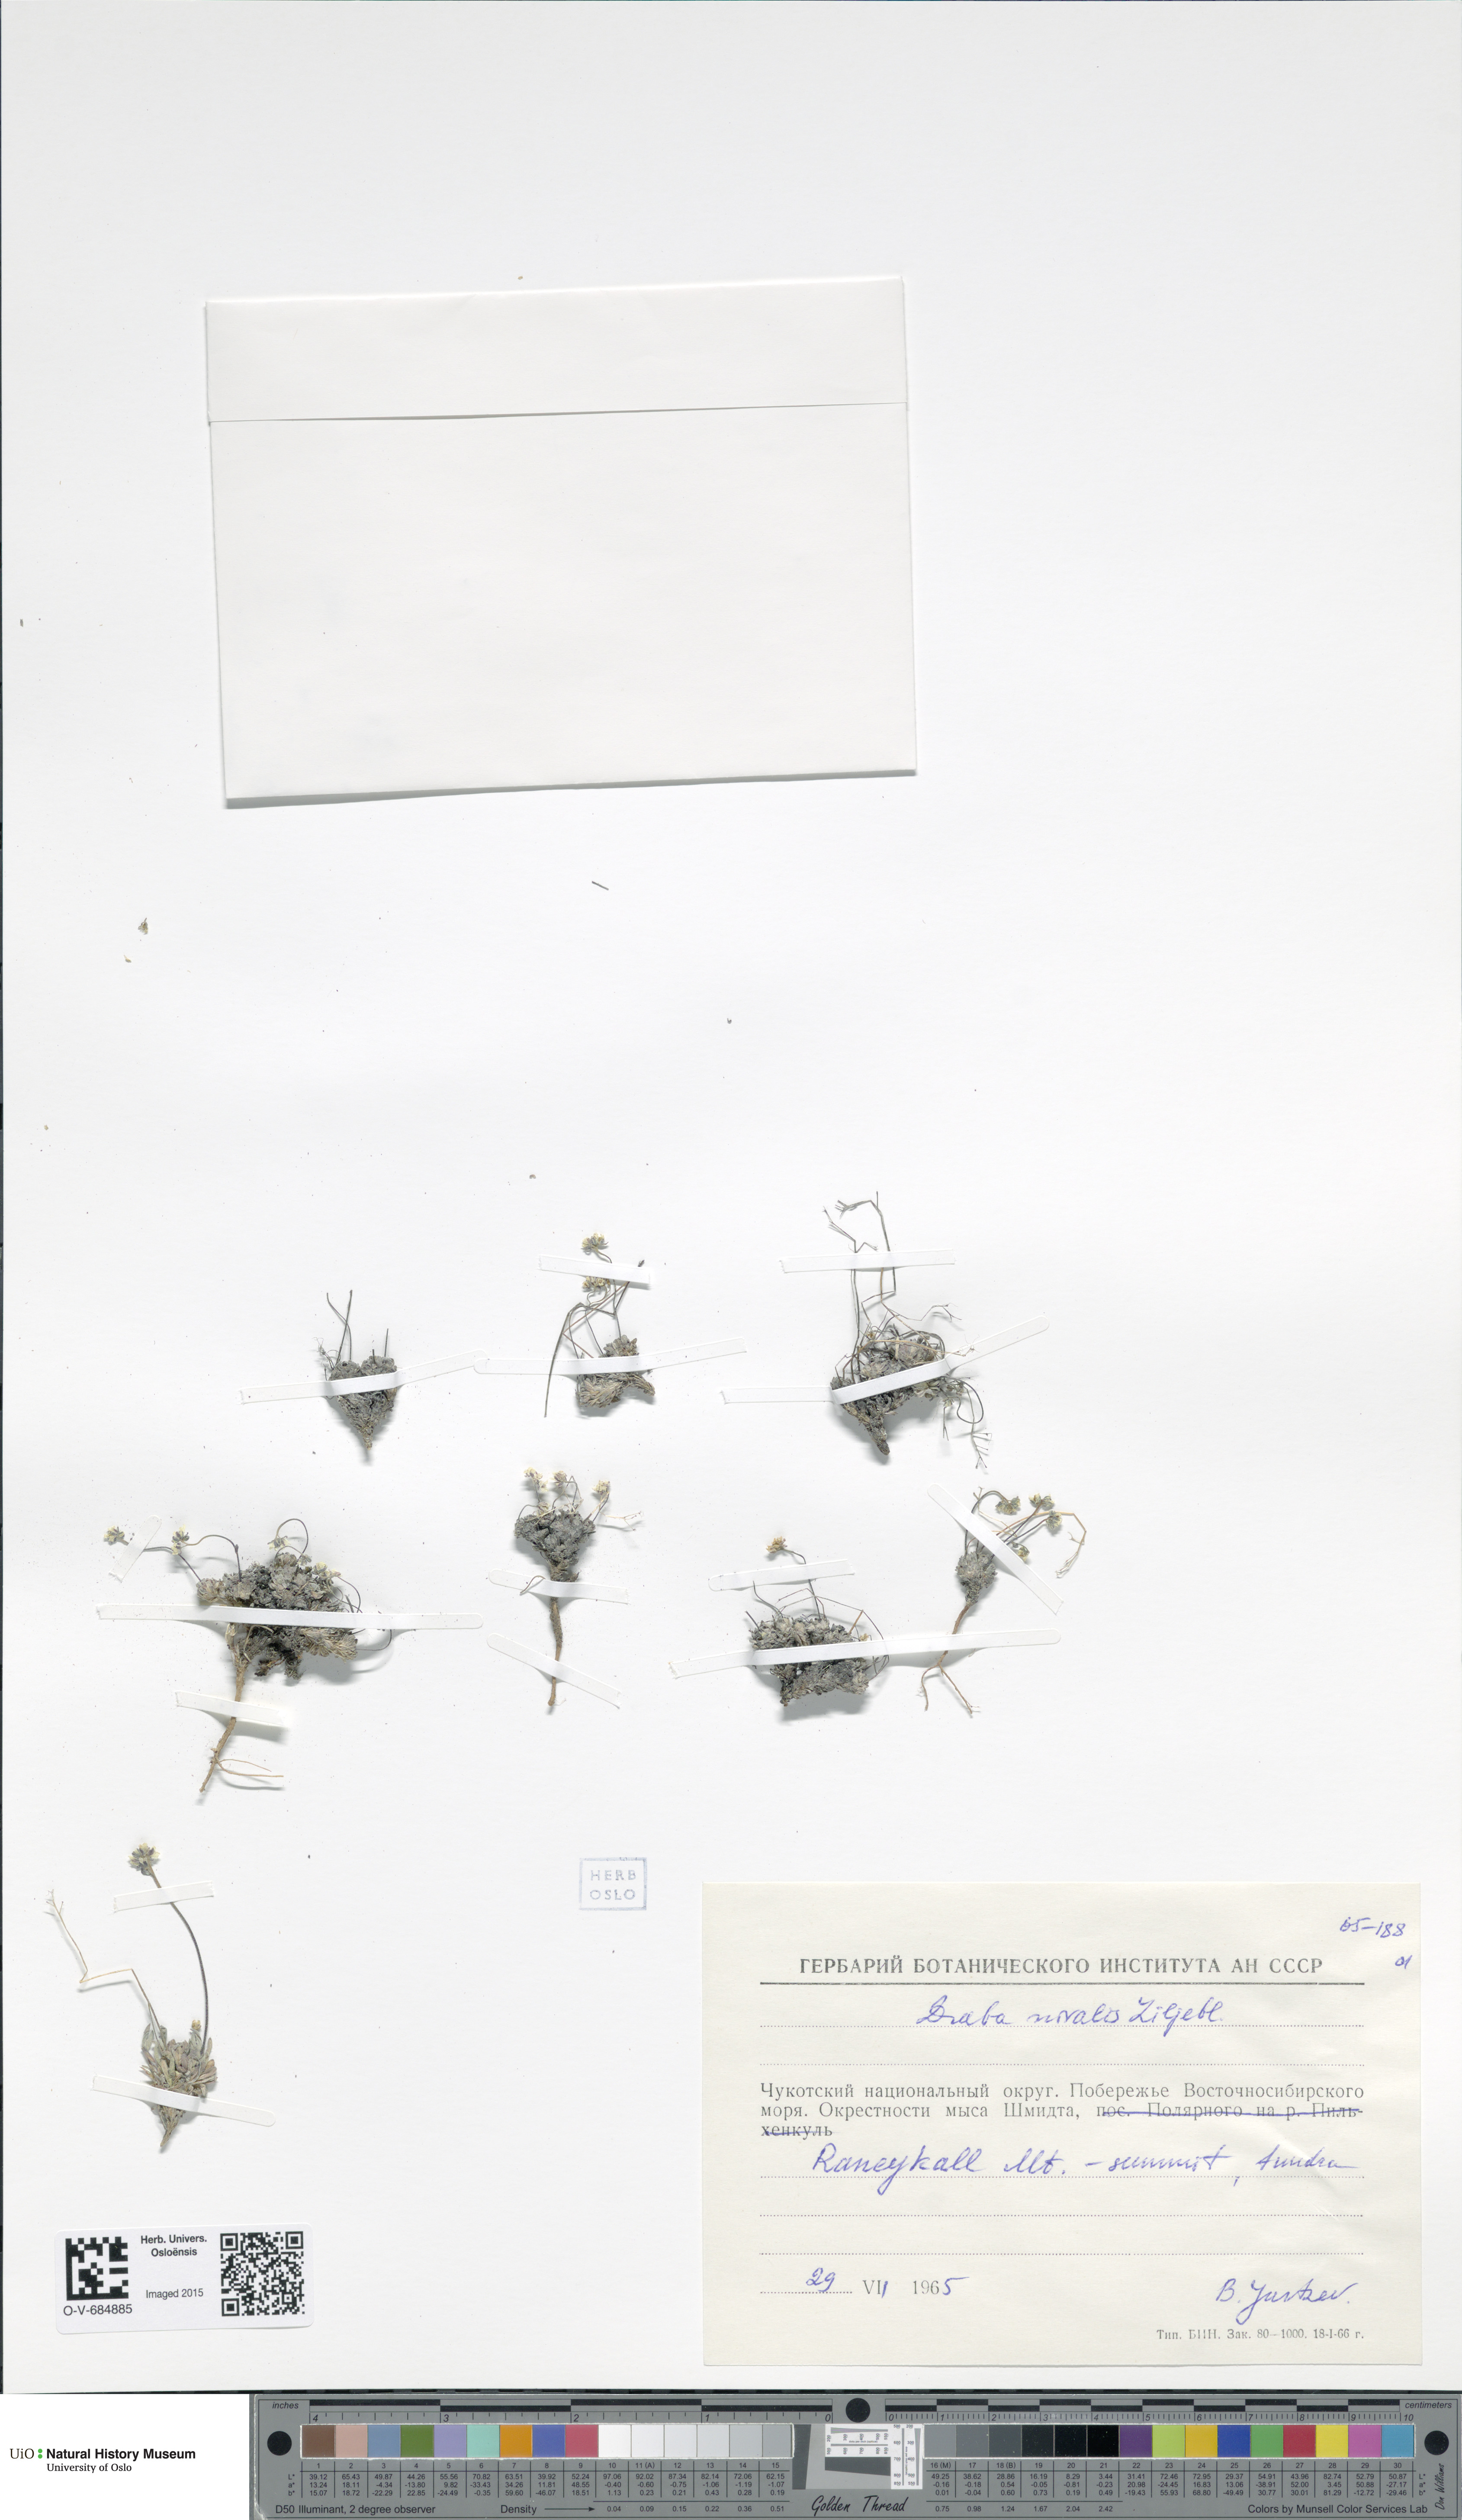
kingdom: Plantae
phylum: Tracheophyta
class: Magnoliopsida
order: Brassicales
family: Brassicaceae
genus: Draba
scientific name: Draba nivalis
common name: Snow draba
